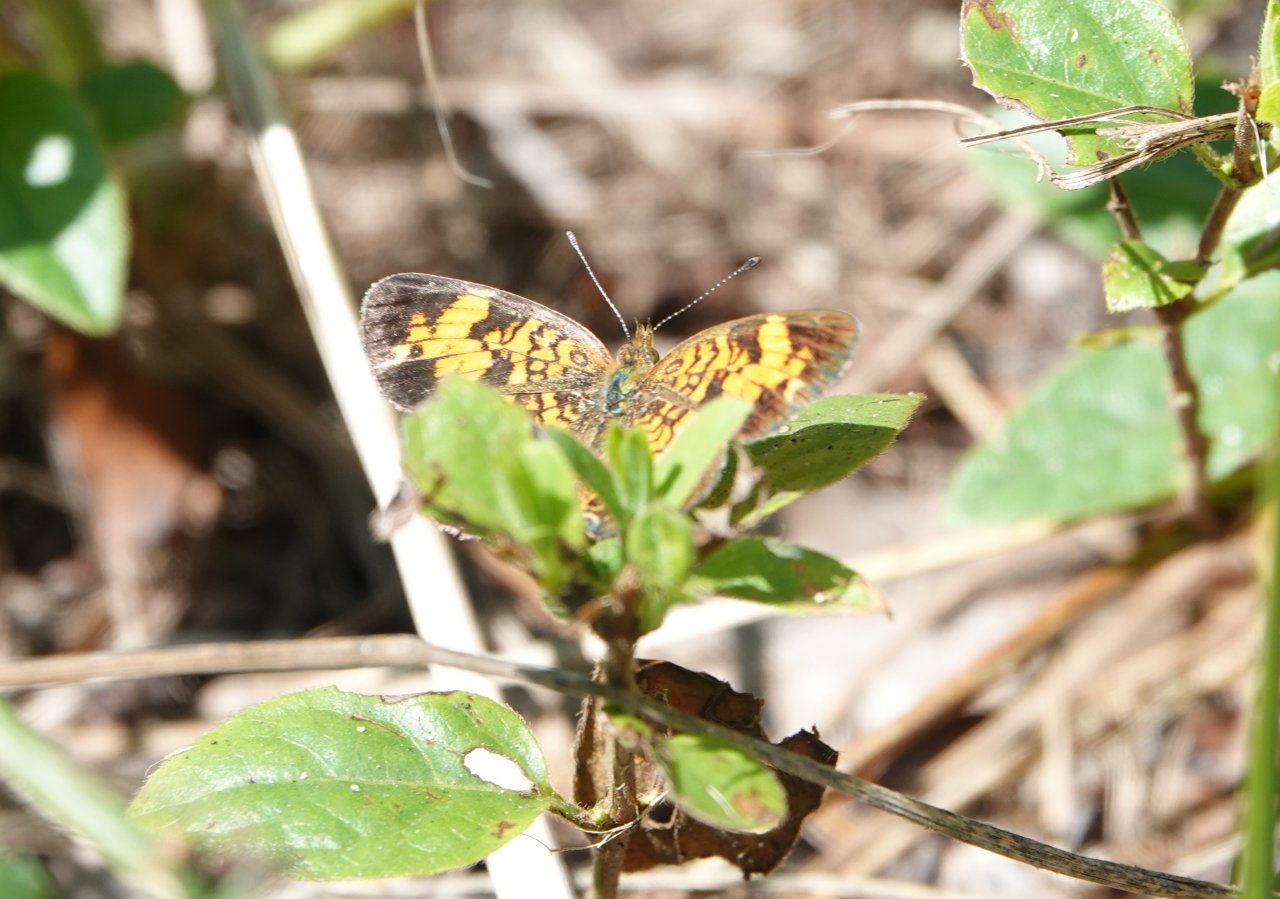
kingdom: Animalia
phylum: Arthropoda
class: Insecta
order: Lepidoptera
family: Nymphalidae
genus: Phyciodes
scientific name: Phyciodes tharos
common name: Pearl Crescent
